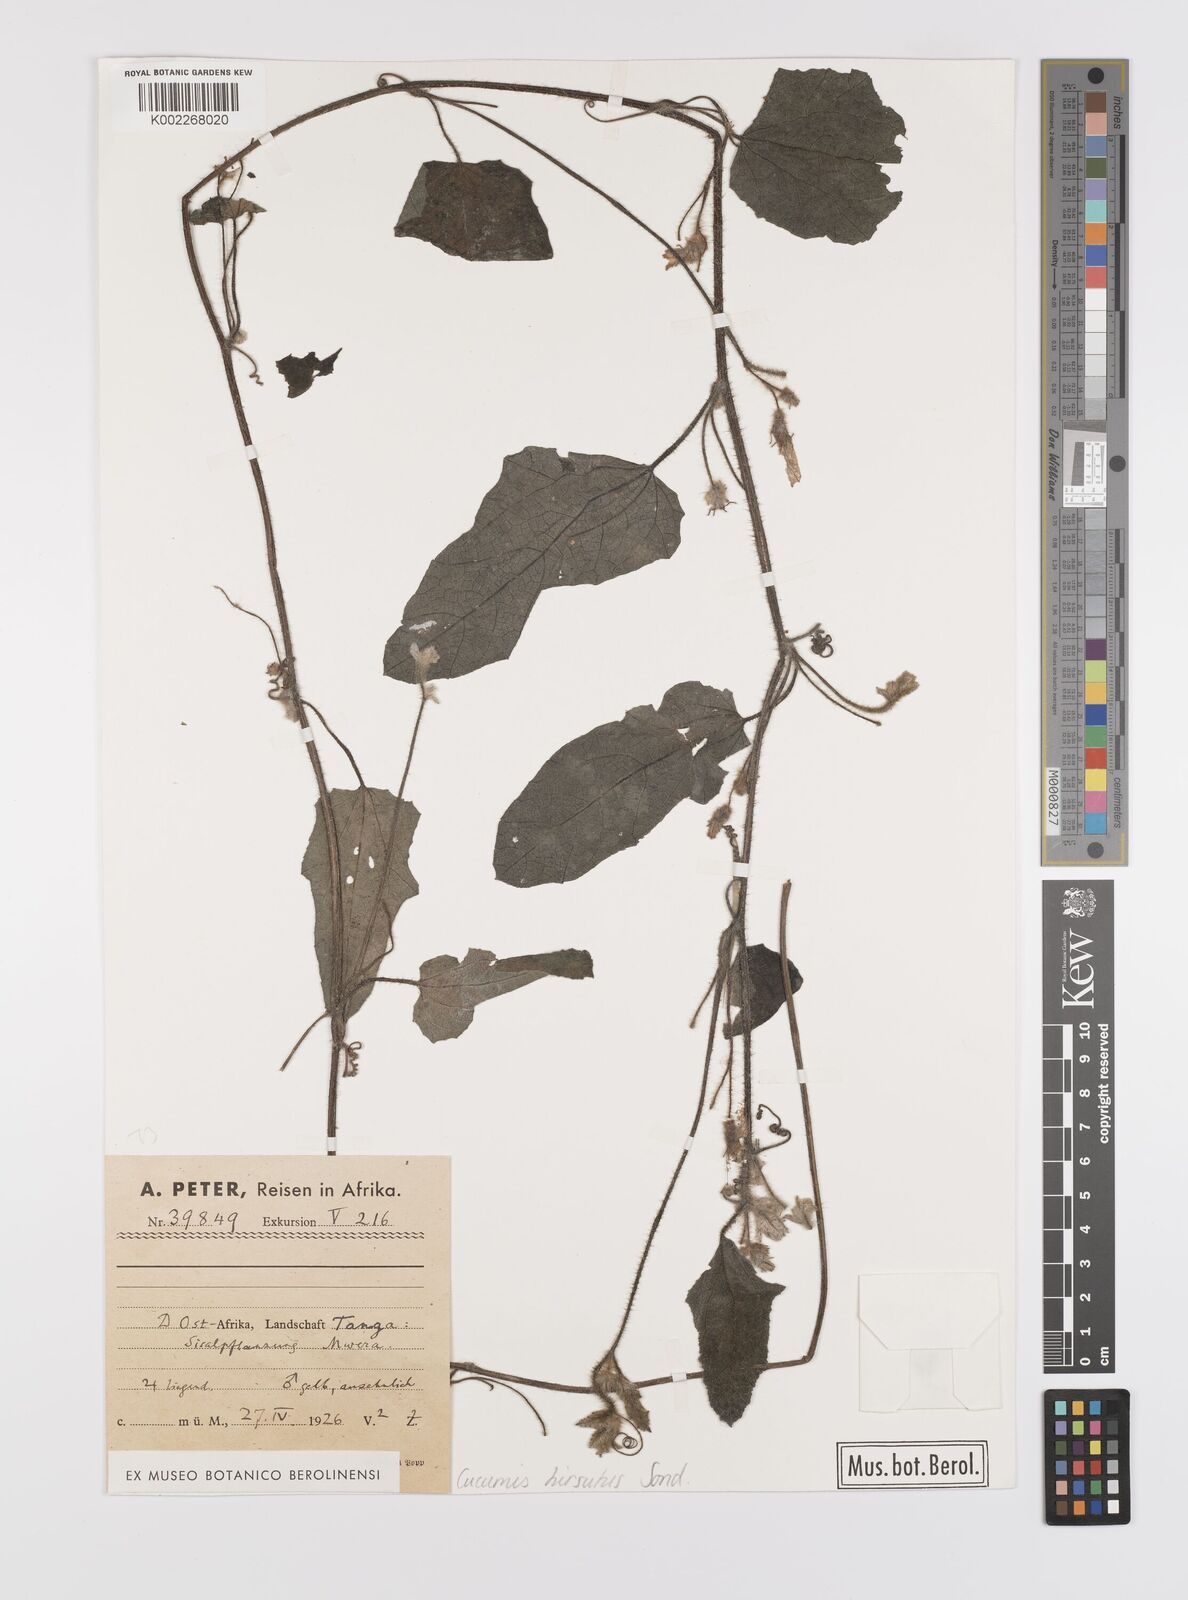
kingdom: Plantae
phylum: Tracheophyta
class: Magnoliopsida
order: Cucurbitales
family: Cucurbitaceae
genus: Cucumis
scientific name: Cucumis hirsutus
